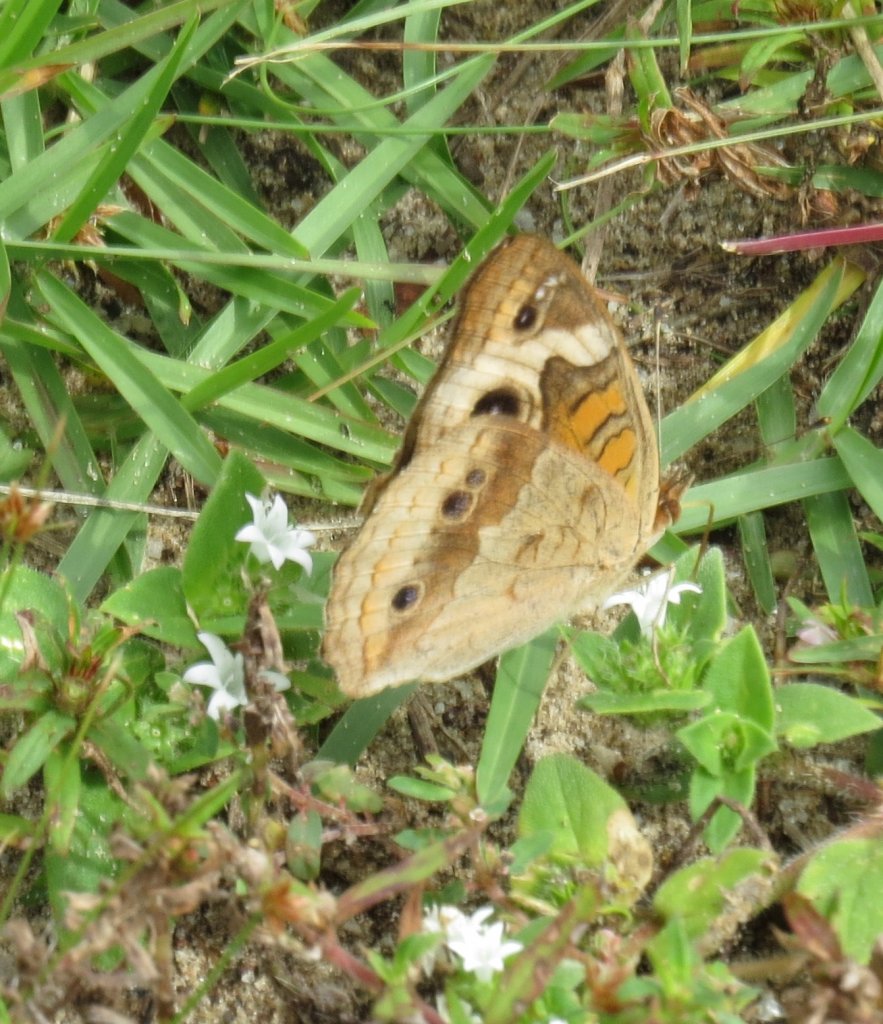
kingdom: Animalia
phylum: Arthropoda
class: Insecta
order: Lepidoptera
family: Nymphalidae
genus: Junonia
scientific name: Junonia coenia
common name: Common Buckeye
